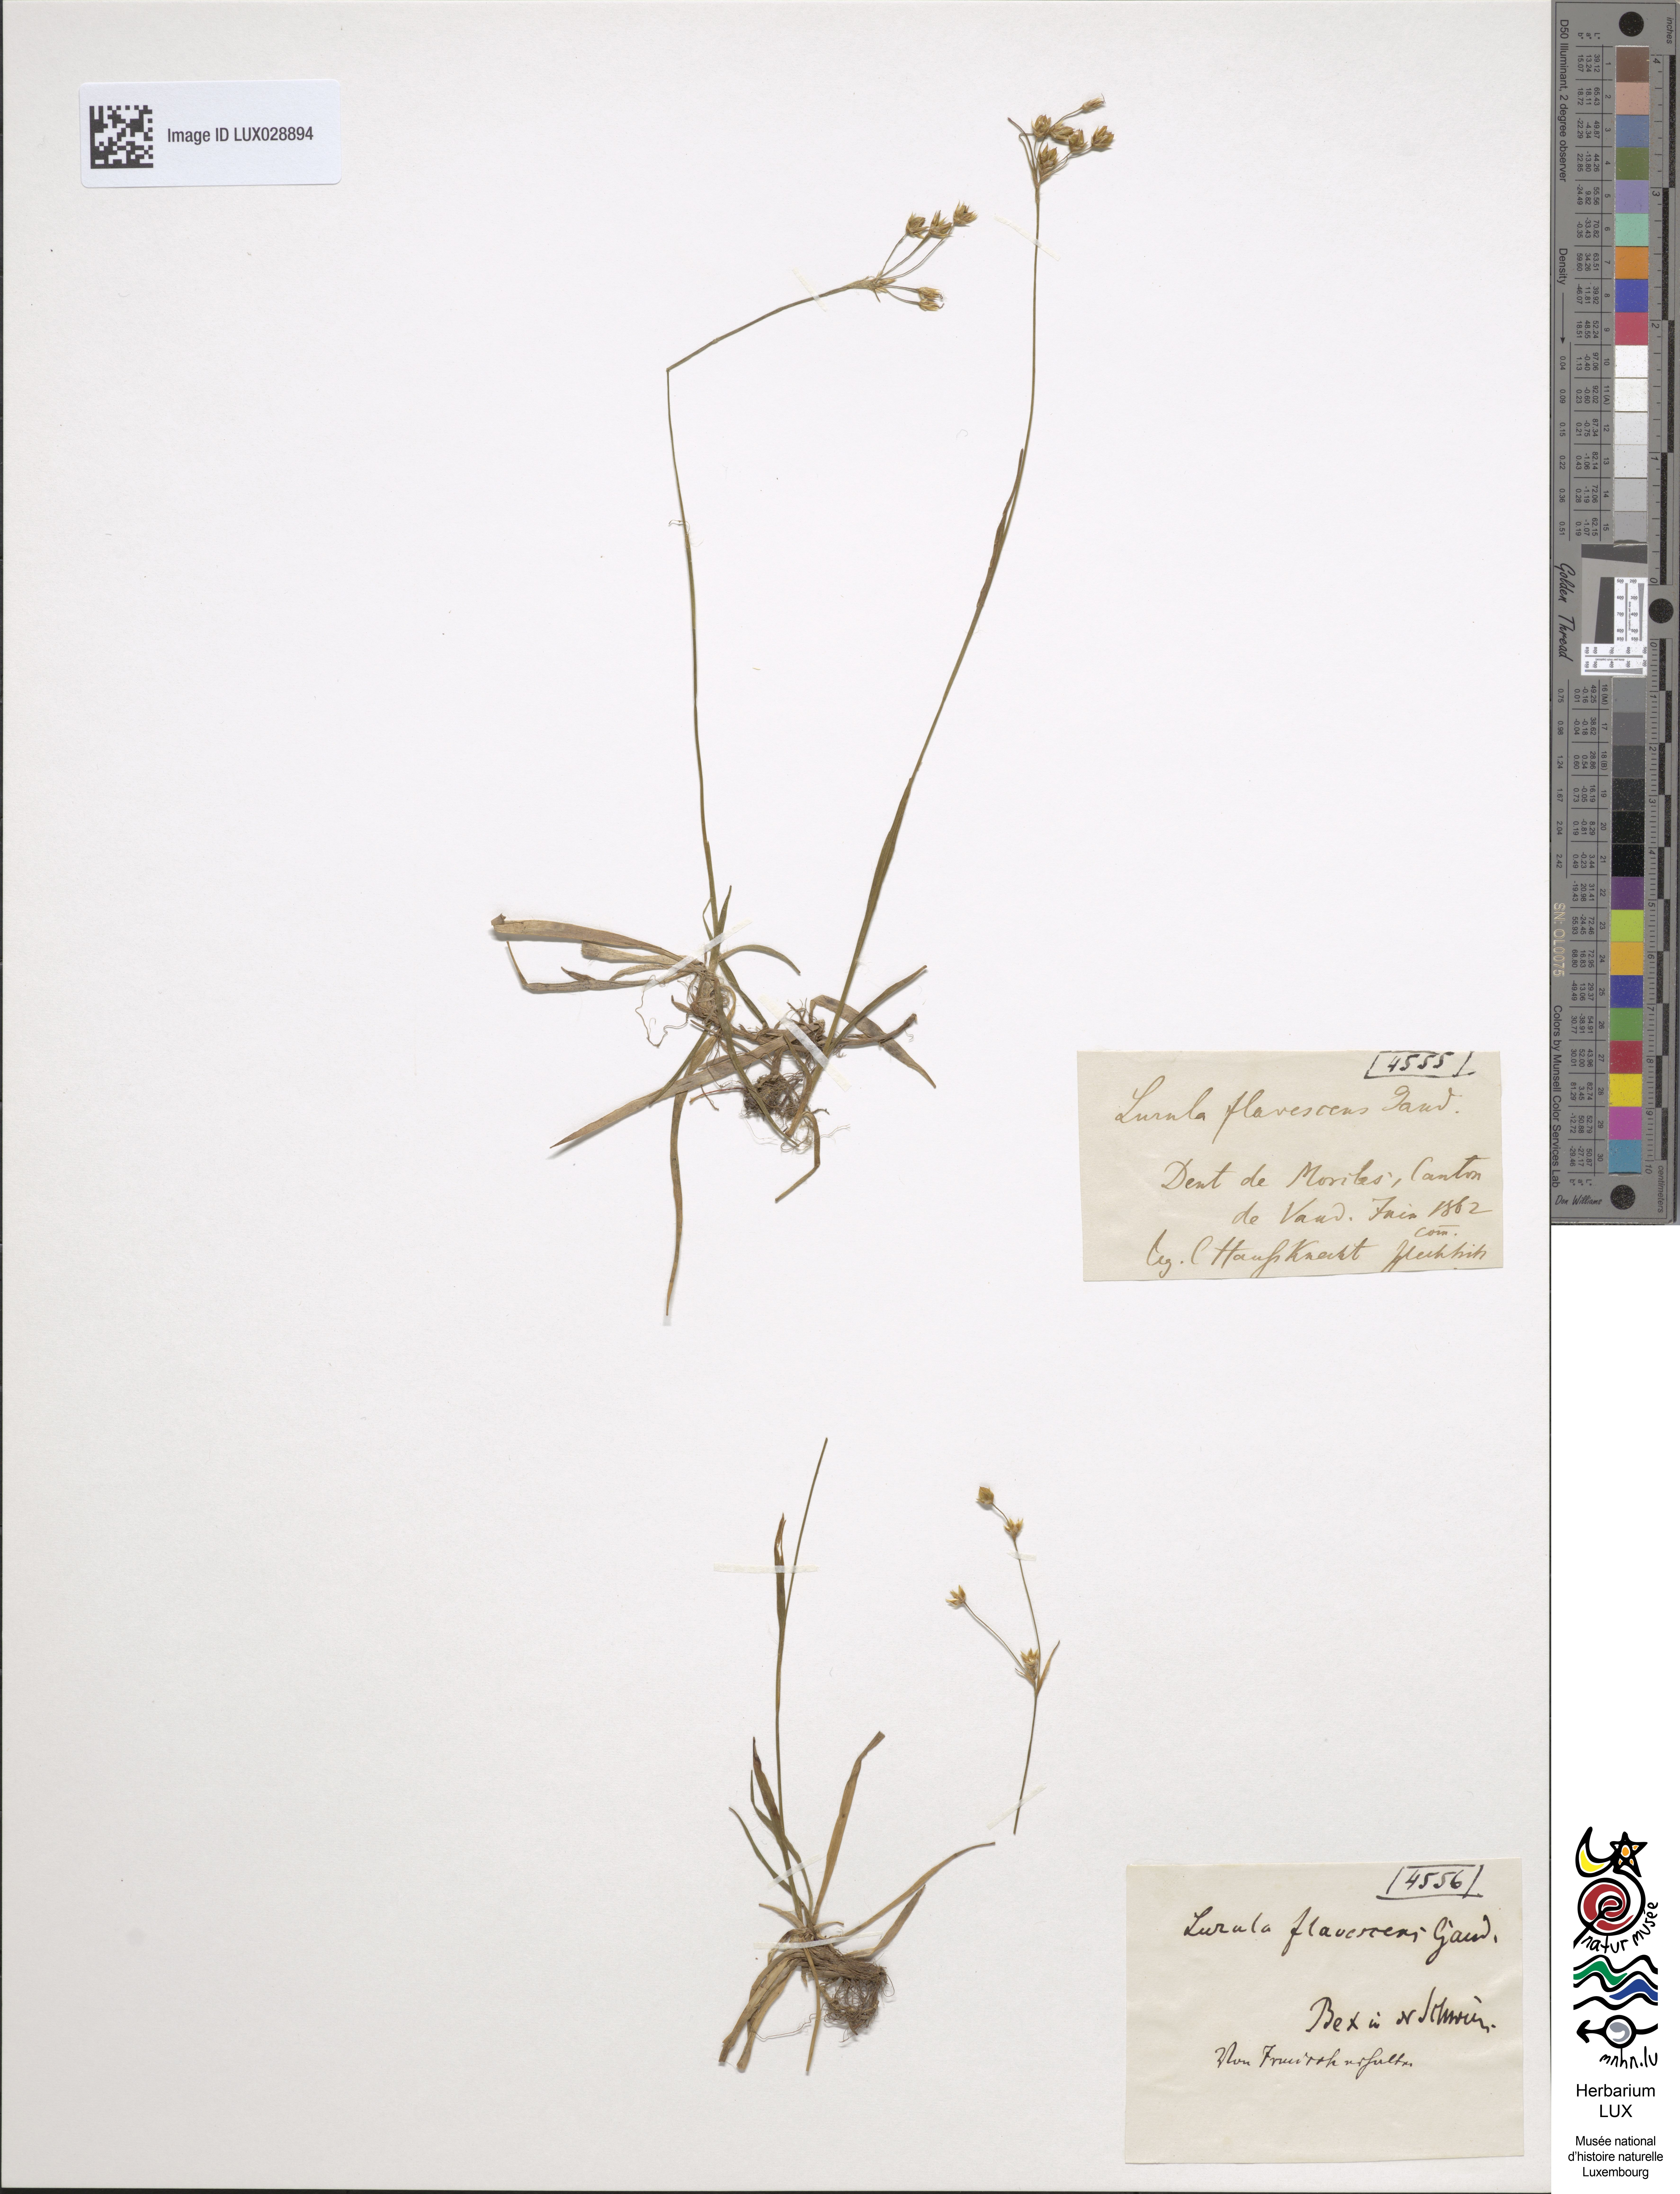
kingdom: Plantae
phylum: Tracheophyta
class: Liliopsida
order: Poales
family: Juncaceae
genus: Luzula
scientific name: Luzula luzulina
